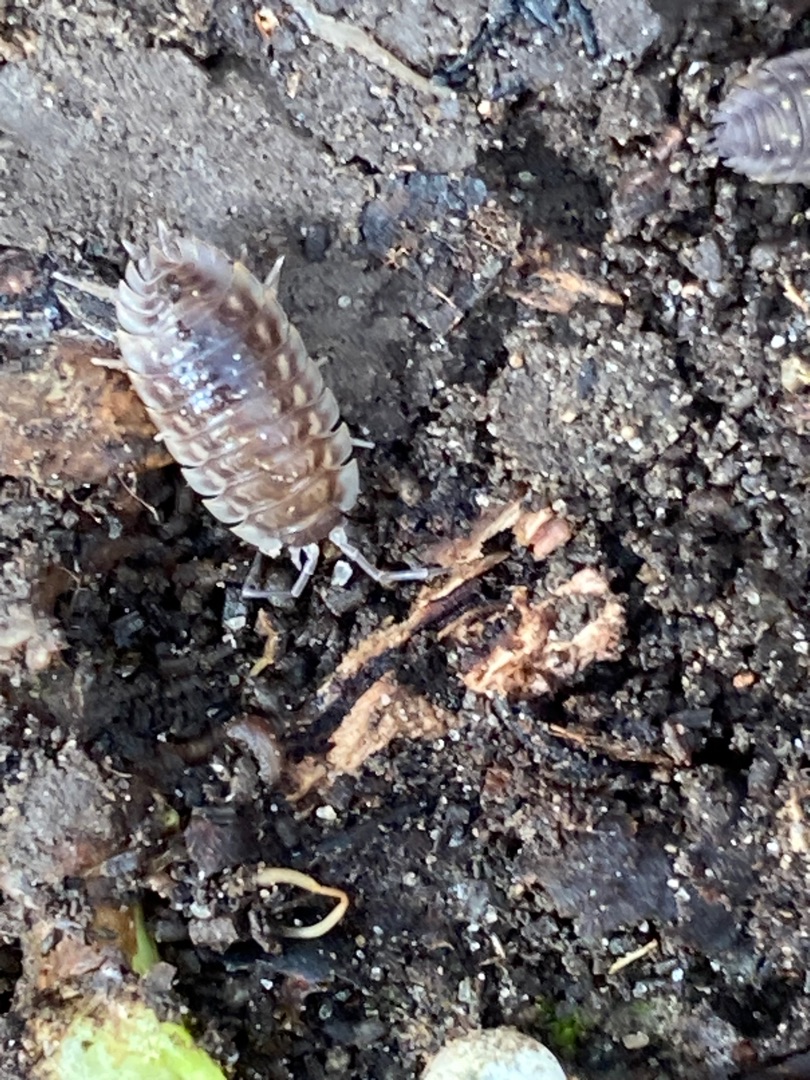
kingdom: Animalia
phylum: Arthropoda
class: Malacostraca
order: Isopoda
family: Oniscidae
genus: Oniscus
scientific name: Oniscus asellus
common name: Glat bænkebider
